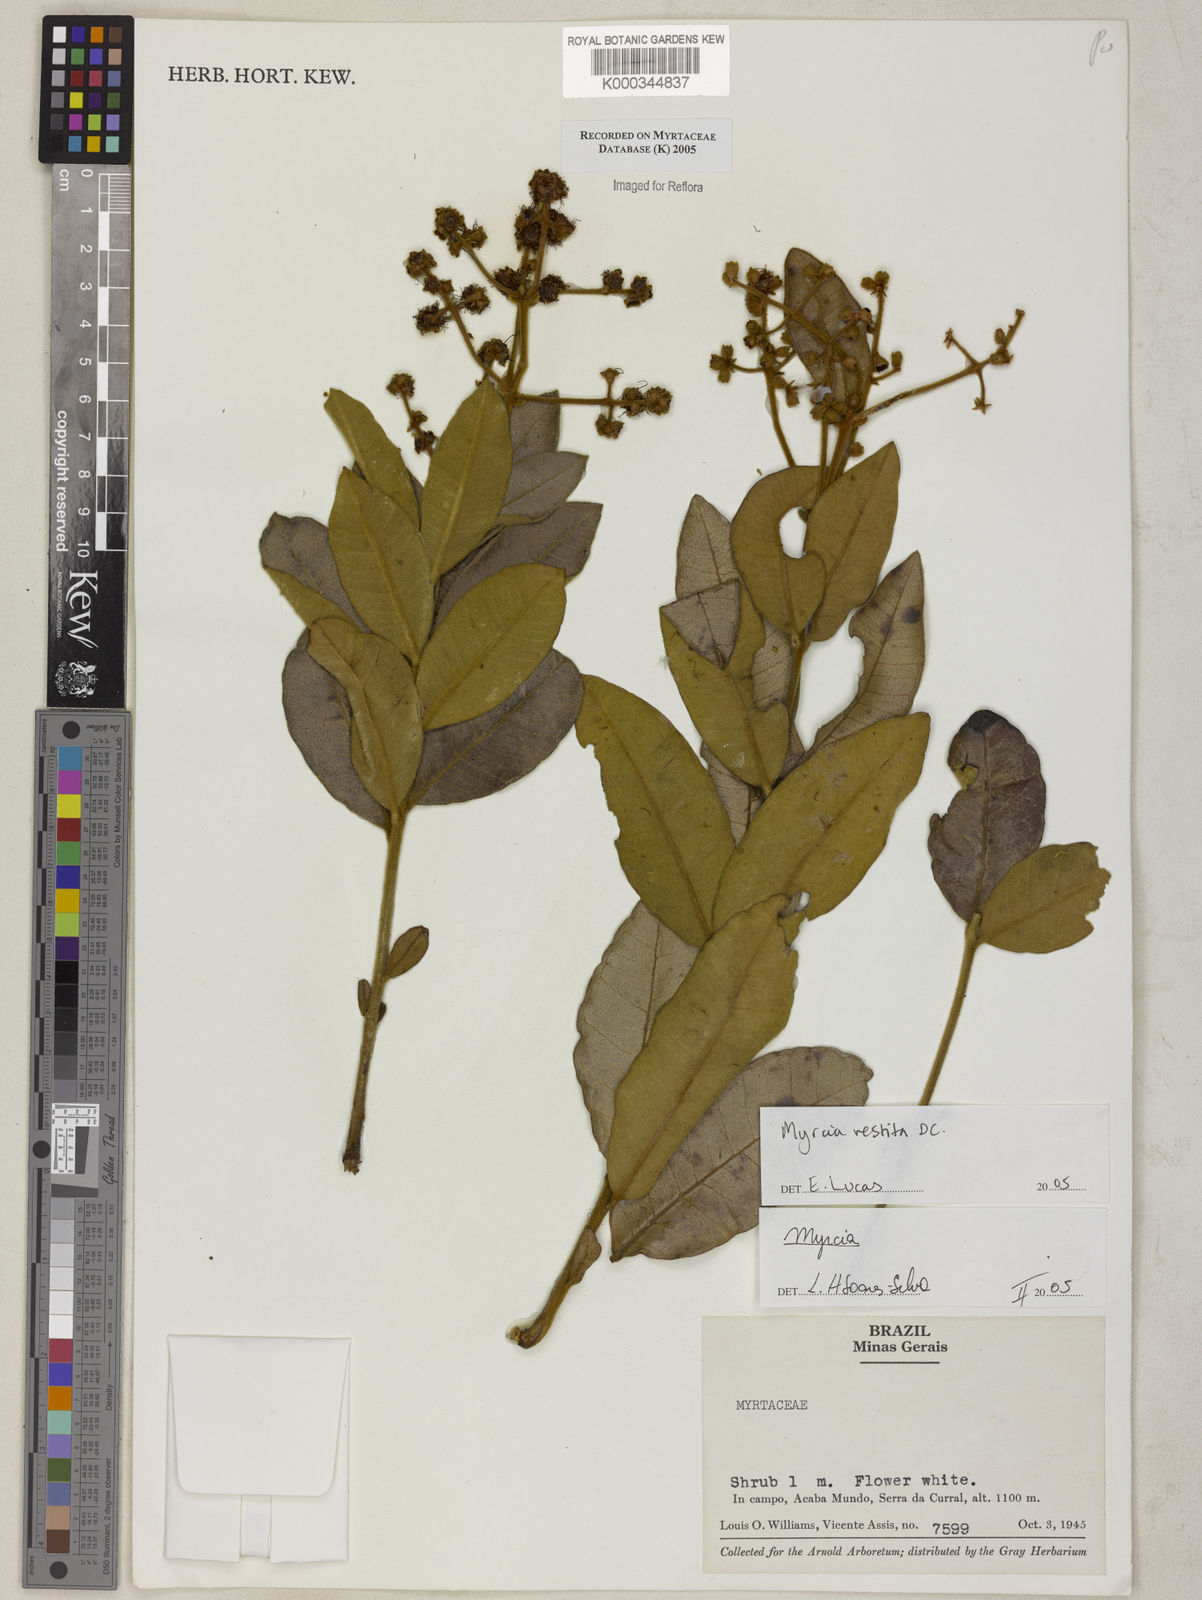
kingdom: Plantae
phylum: Tracheophyta
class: Magnoliopsida
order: Myrtales
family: Myrtaceae
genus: Myrcia
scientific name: Myrcia vestita
